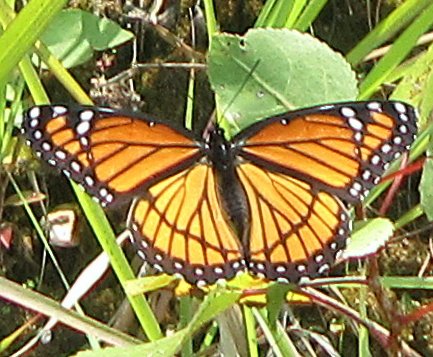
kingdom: Animalia
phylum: Arthropoda
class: Insecta
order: Lepidoptera
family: Nymphalidae
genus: Limenitis
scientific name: Limenitis archippus
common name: Viceroy
